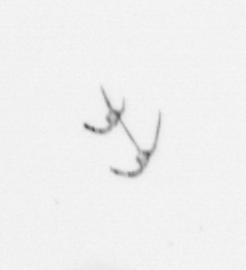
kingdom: Chromista
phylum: Myzozoa
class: Dinophyceae
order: Gonyaulacales
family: Ceratiaceae
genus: Ceratium
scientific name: Ceratium
